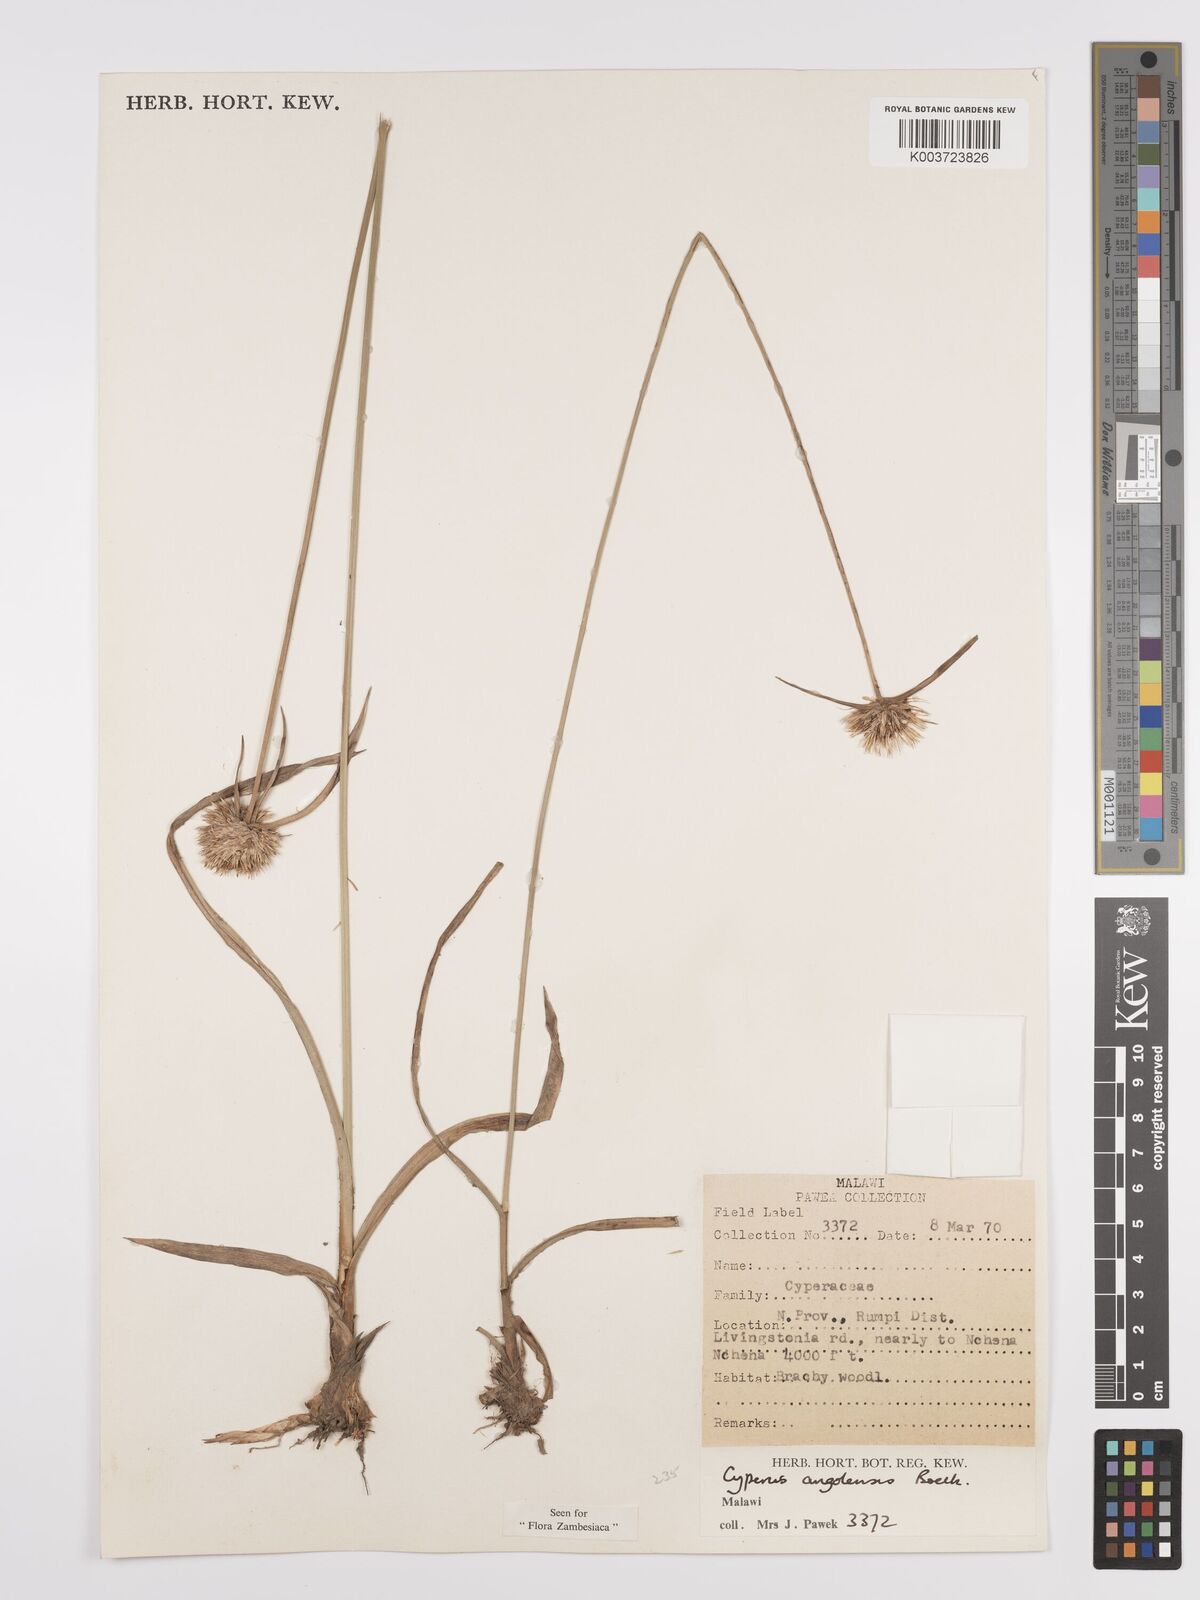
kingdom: Plantae
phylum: Tracheophyta
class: Liliopsida
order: Poales
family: Cyperaceae
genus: Cyperus
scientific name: Cyperus angolensis
